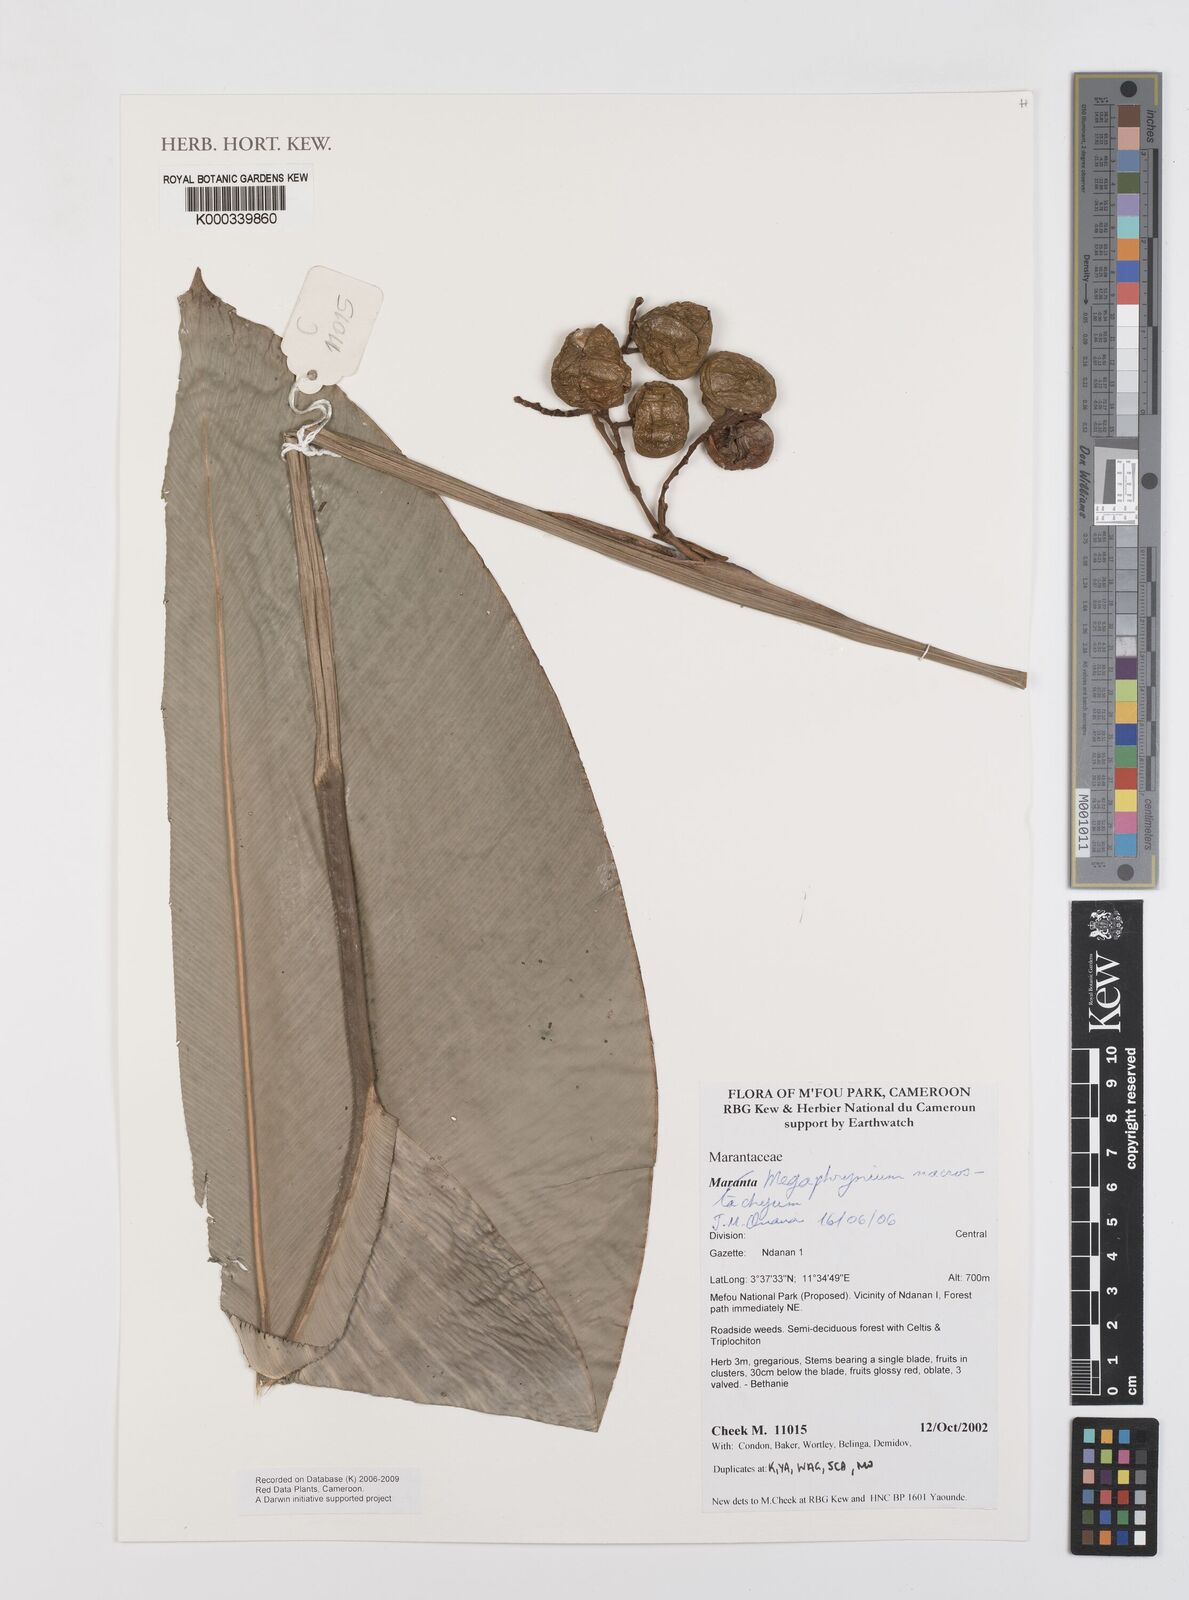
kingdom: Plantae
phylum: Tracheophyta
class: Liliopsida
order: Zingiberales
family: Marantaceae
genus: Megaphrynium
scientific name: Megaphrynium macrostachyum
